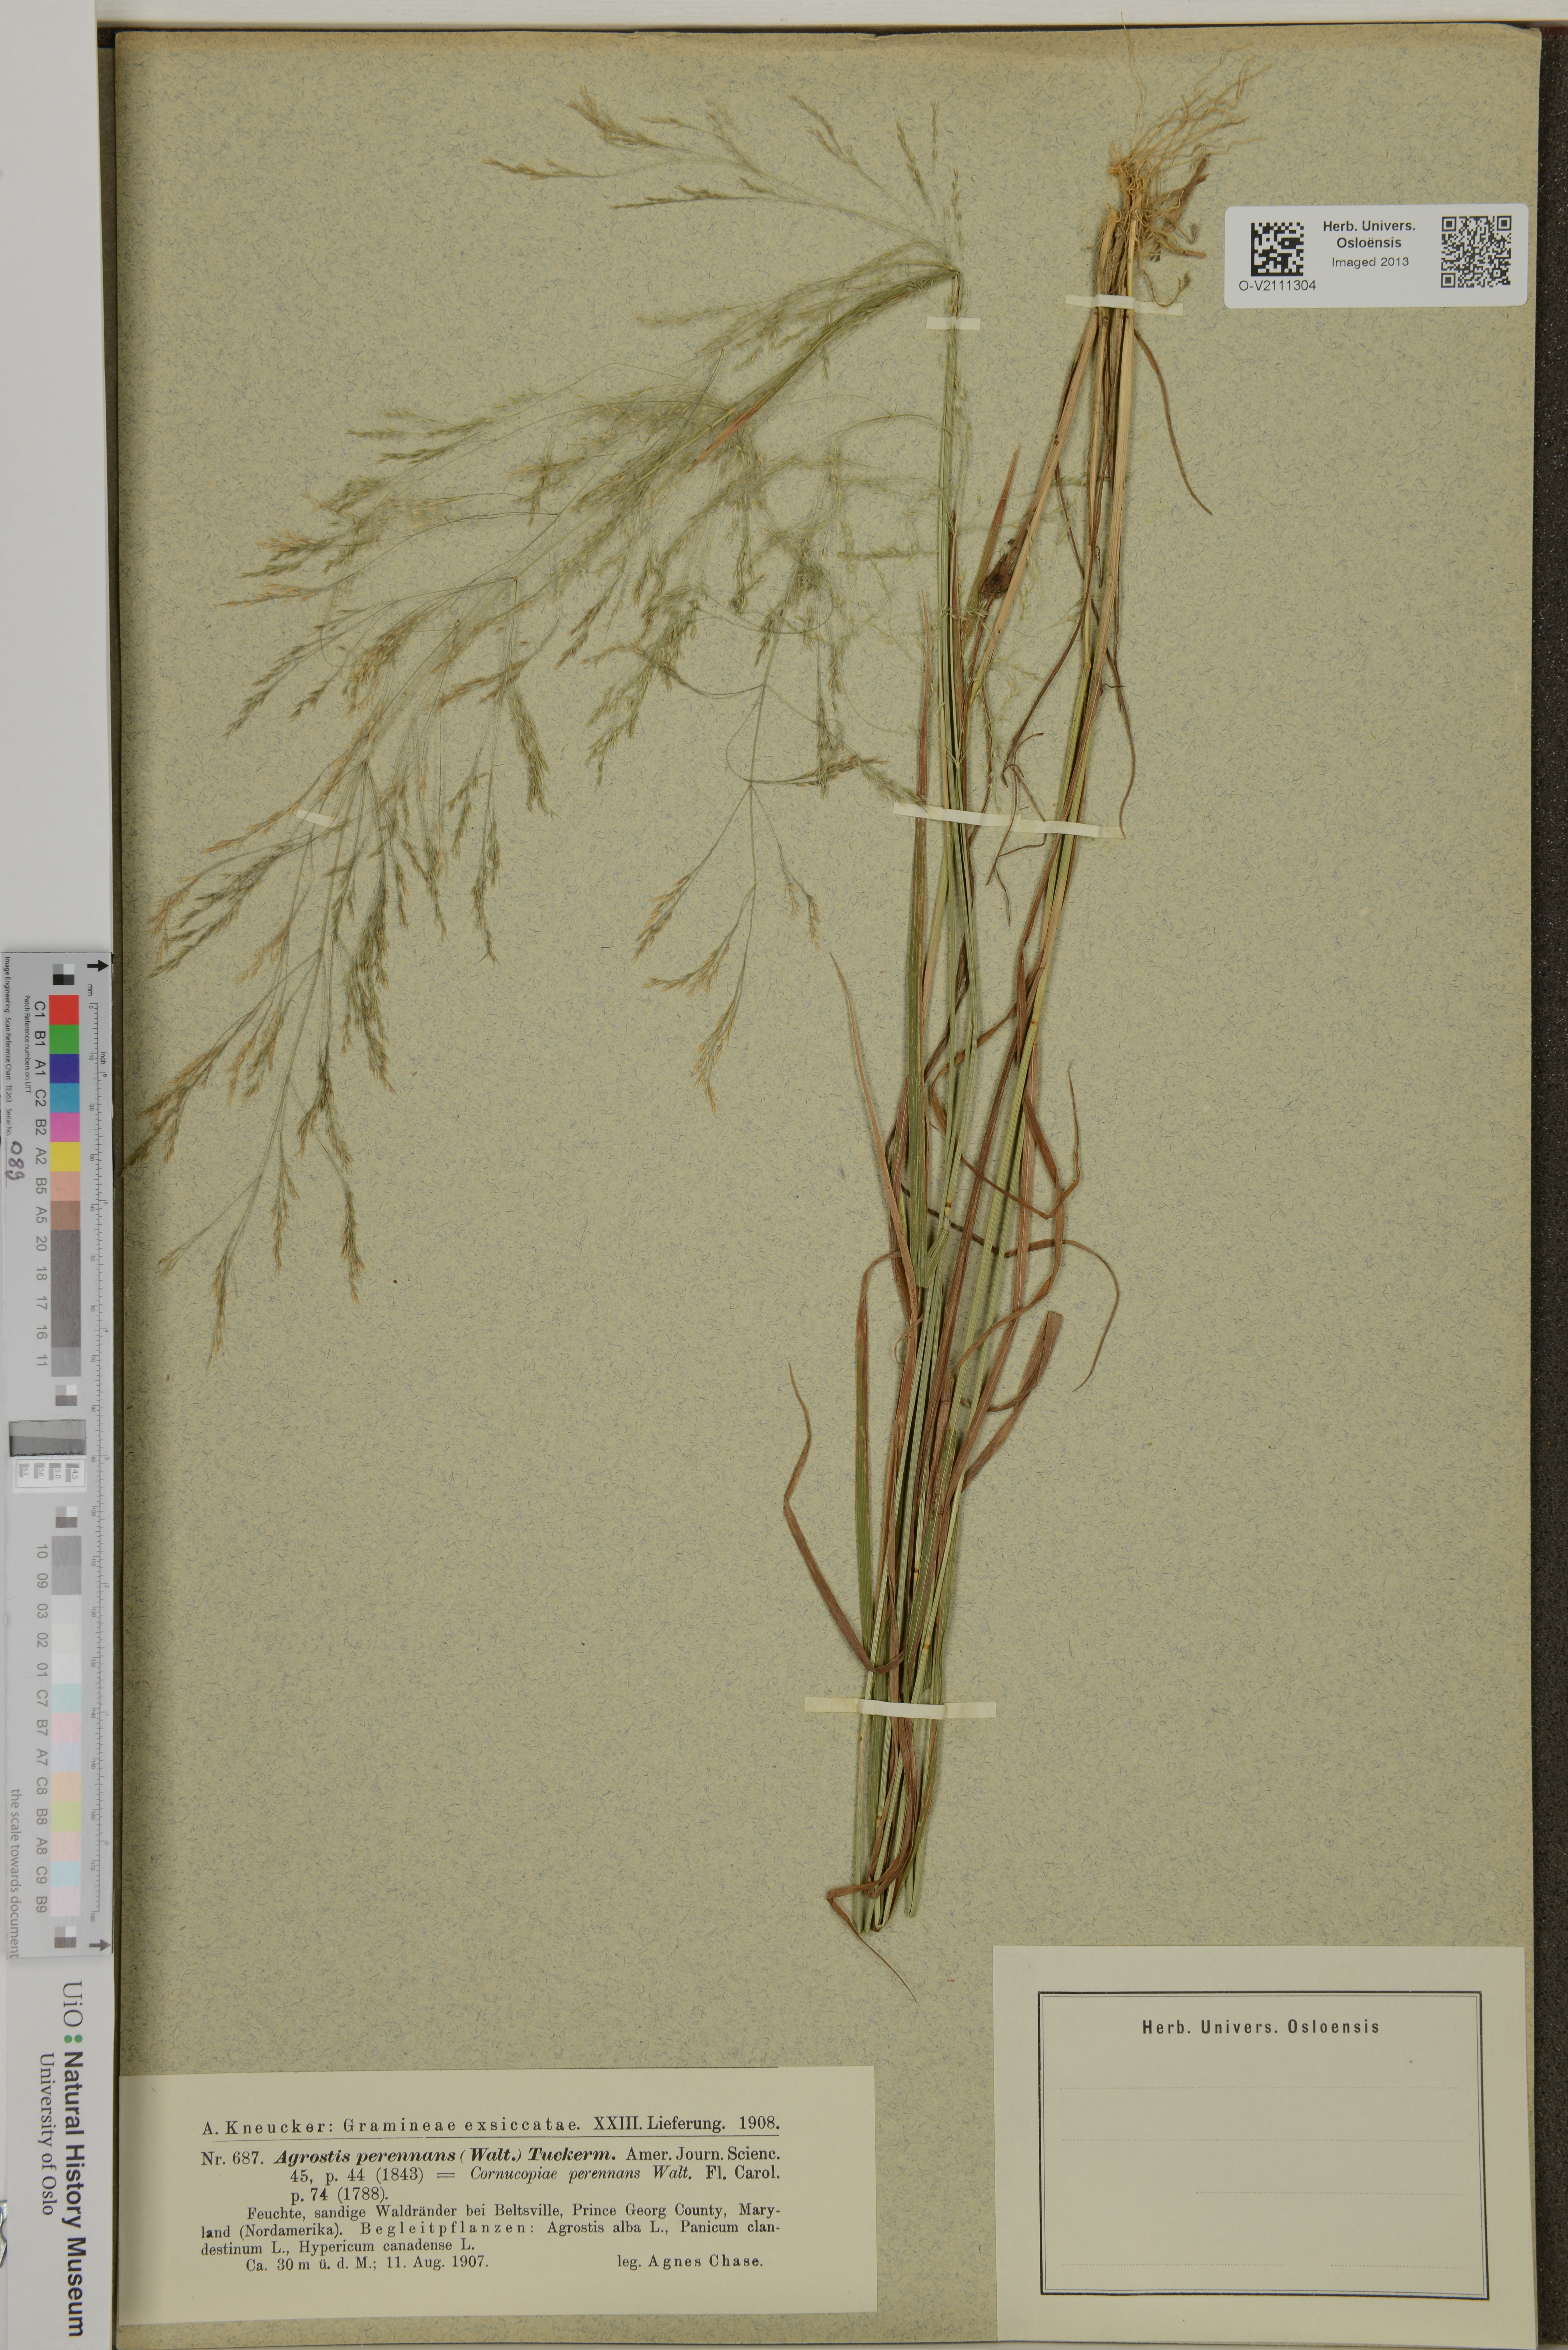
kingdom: Plantae
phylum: Tracheophyta
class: Liliopsida
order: Poales
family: Poaceae
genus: Agrostis
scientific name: Agrostis perennans
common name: Autumn bent
